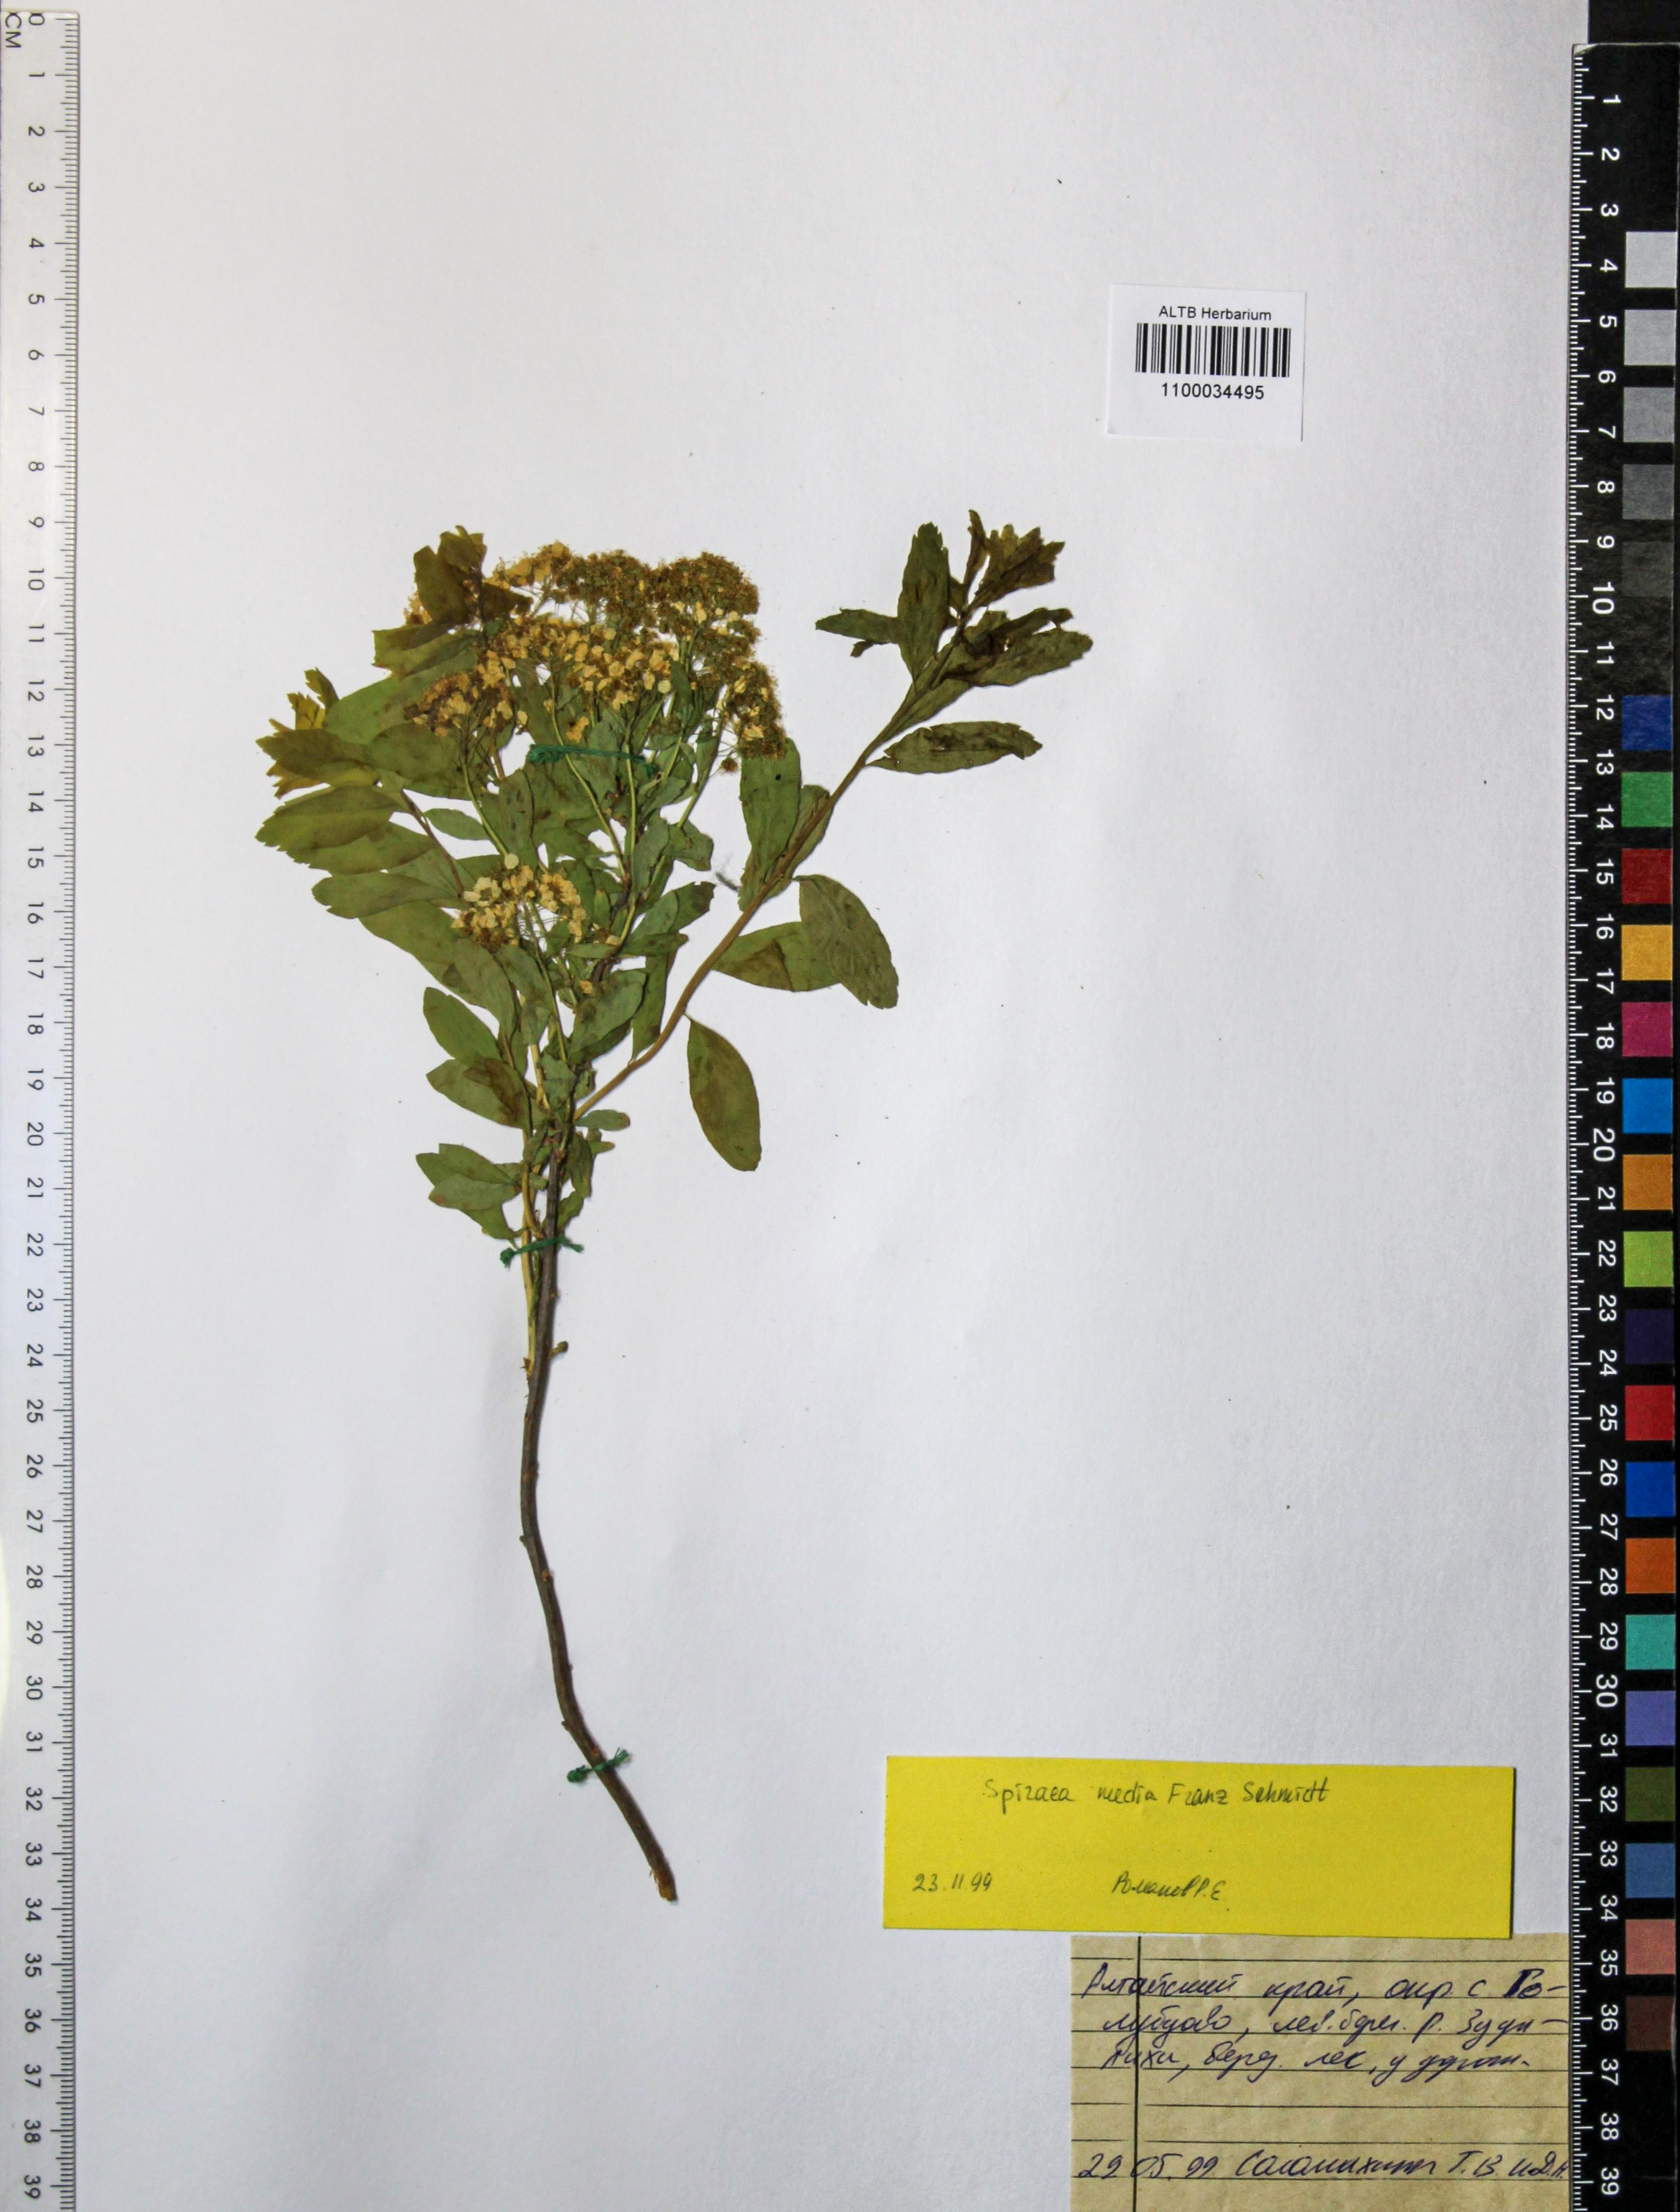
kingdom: Plantae
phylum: Tracheophyta
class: Magnoliopsida
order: Rosales
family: Rosaceae
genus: Spiraea
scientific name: Spiraea media
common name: Russian spiraea
